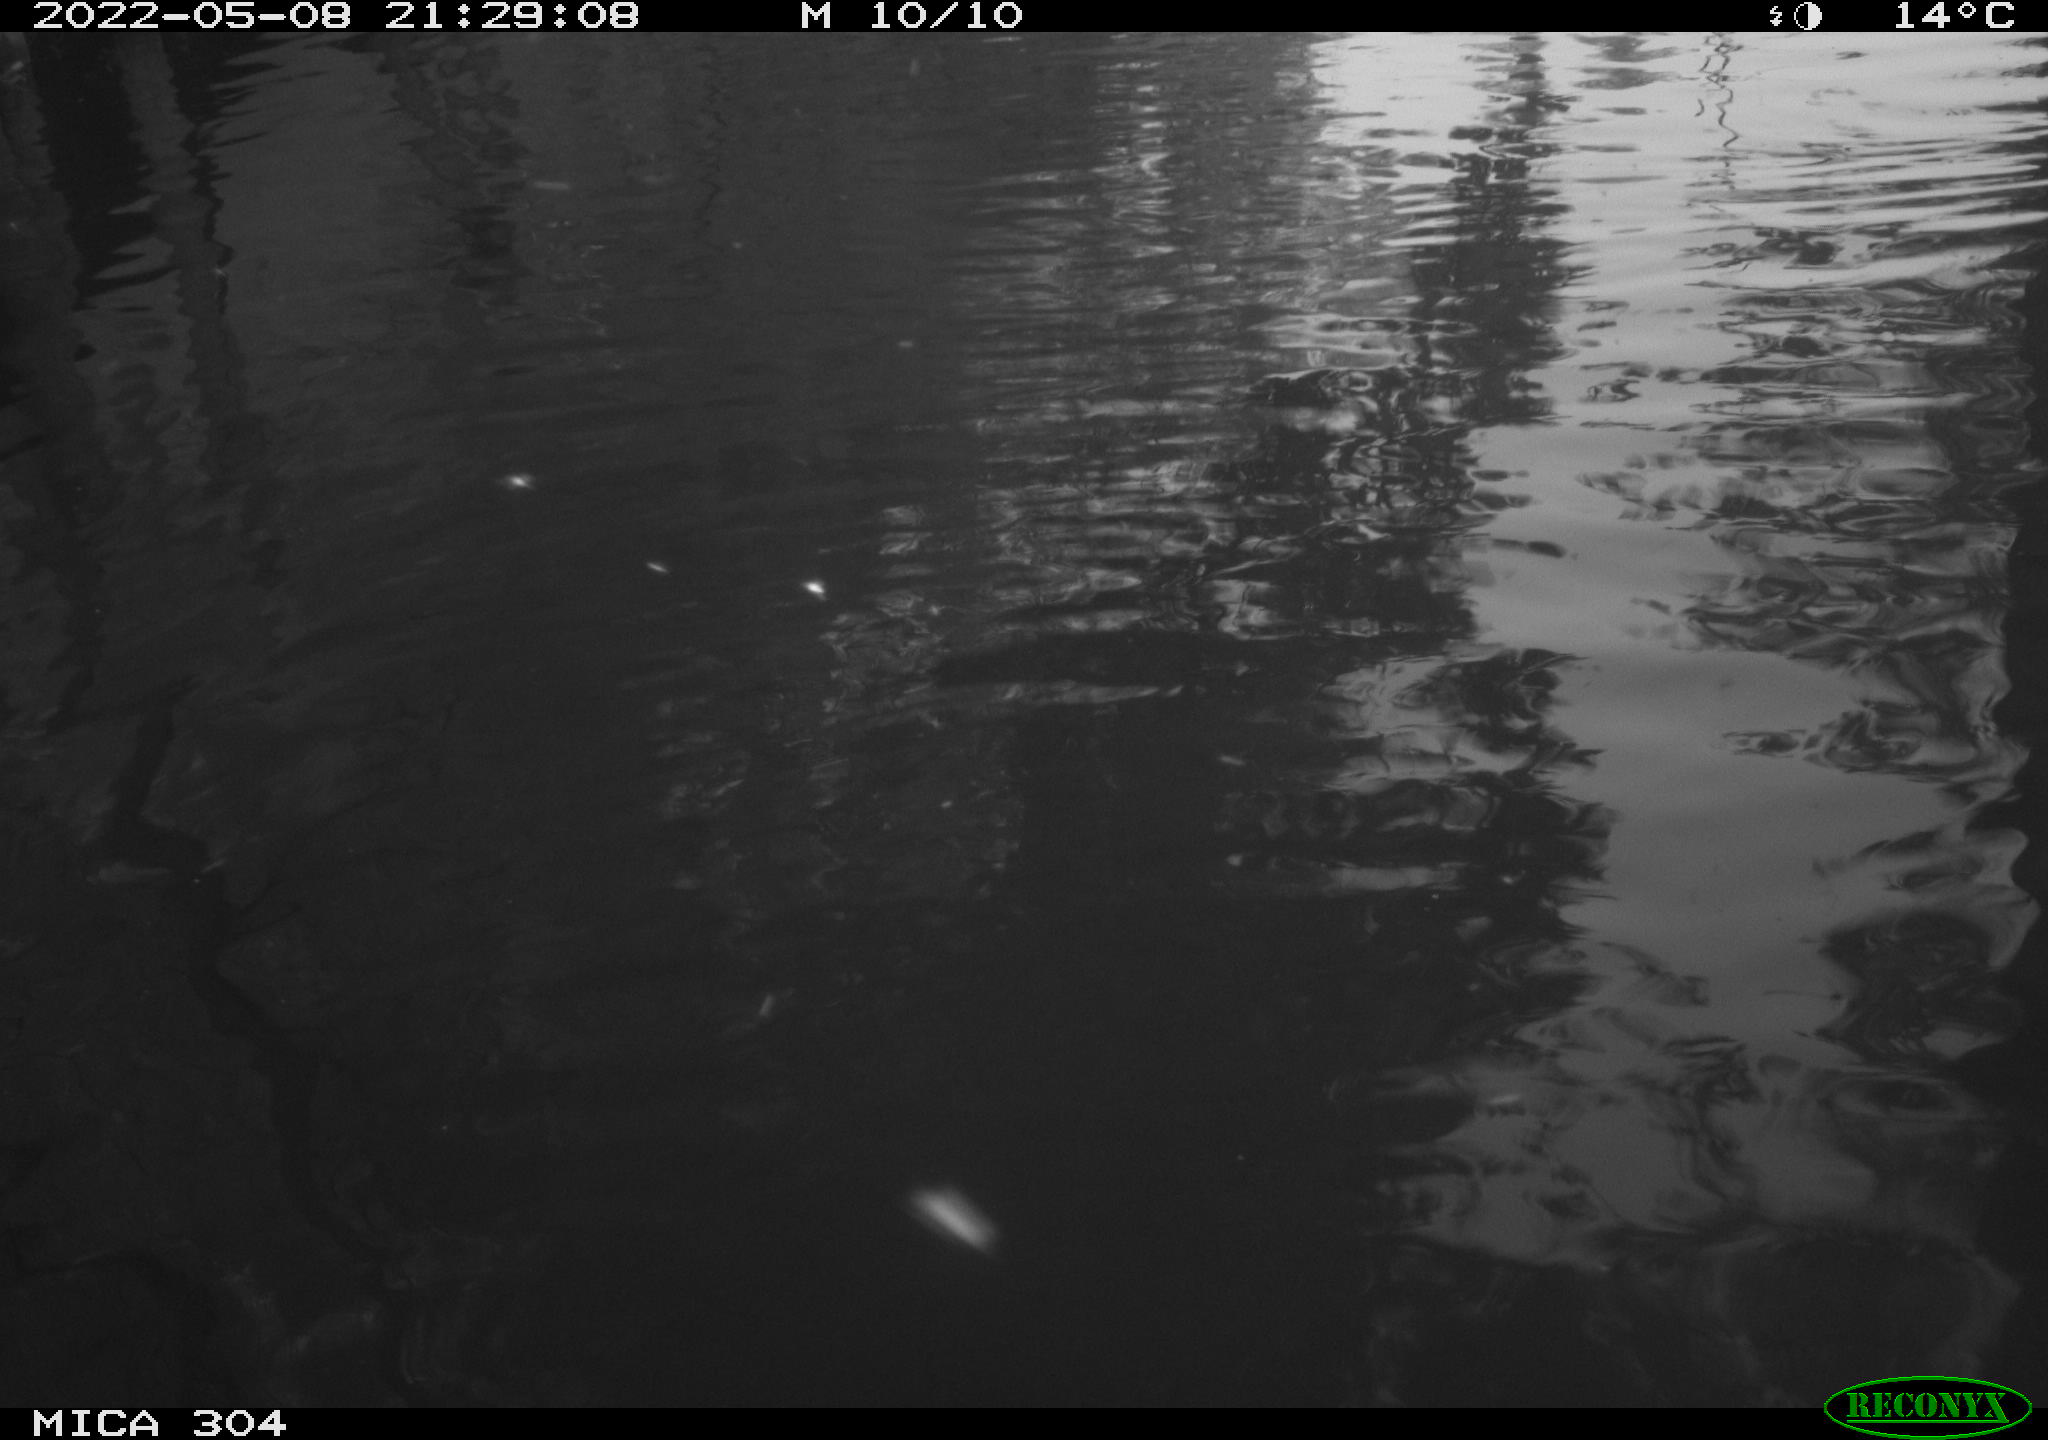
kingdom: Animalia
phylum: Chordata
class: Mammalia
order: Rodentia
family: Cricetidae
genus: Ondatra
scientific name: Ondatra zibethicus
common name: Muskrat
